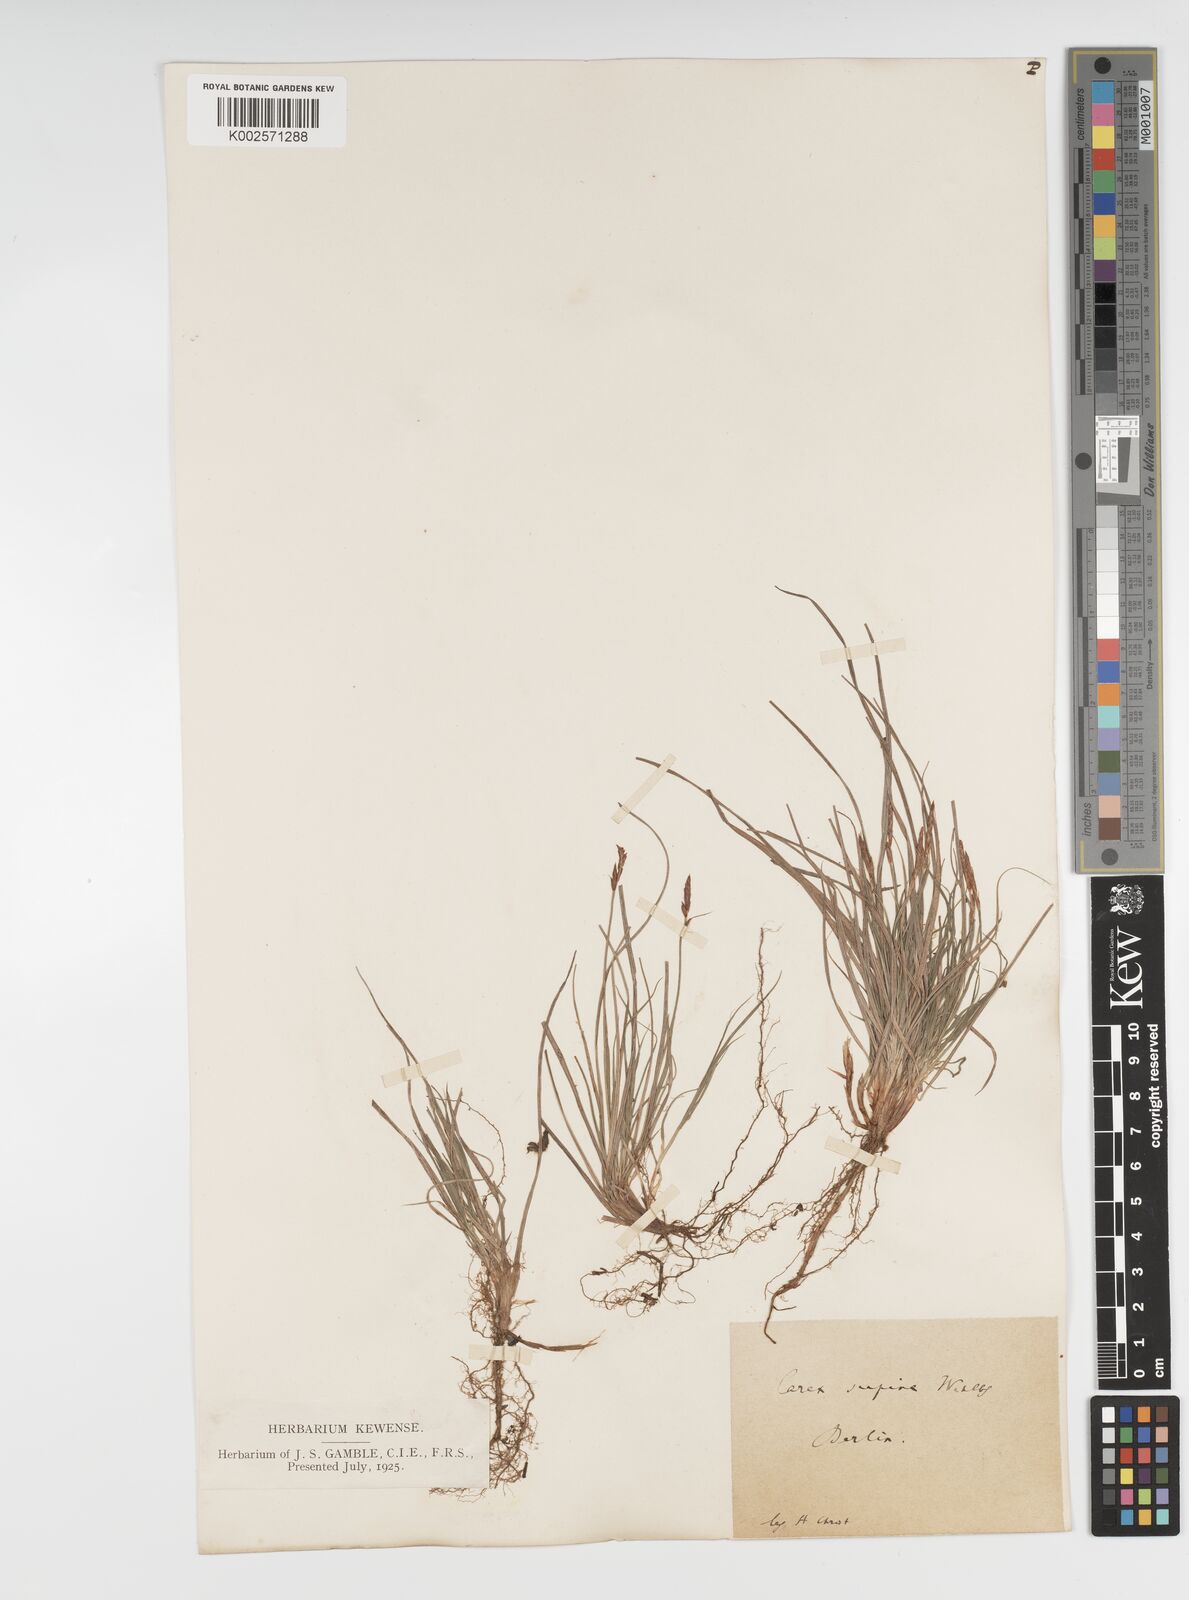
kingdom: Plantae
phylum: Tracheophyta
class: Liliopsida
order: Poales
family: Cyperaceae
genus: Carex
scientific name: Carex supina
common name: Lying-back sedge
